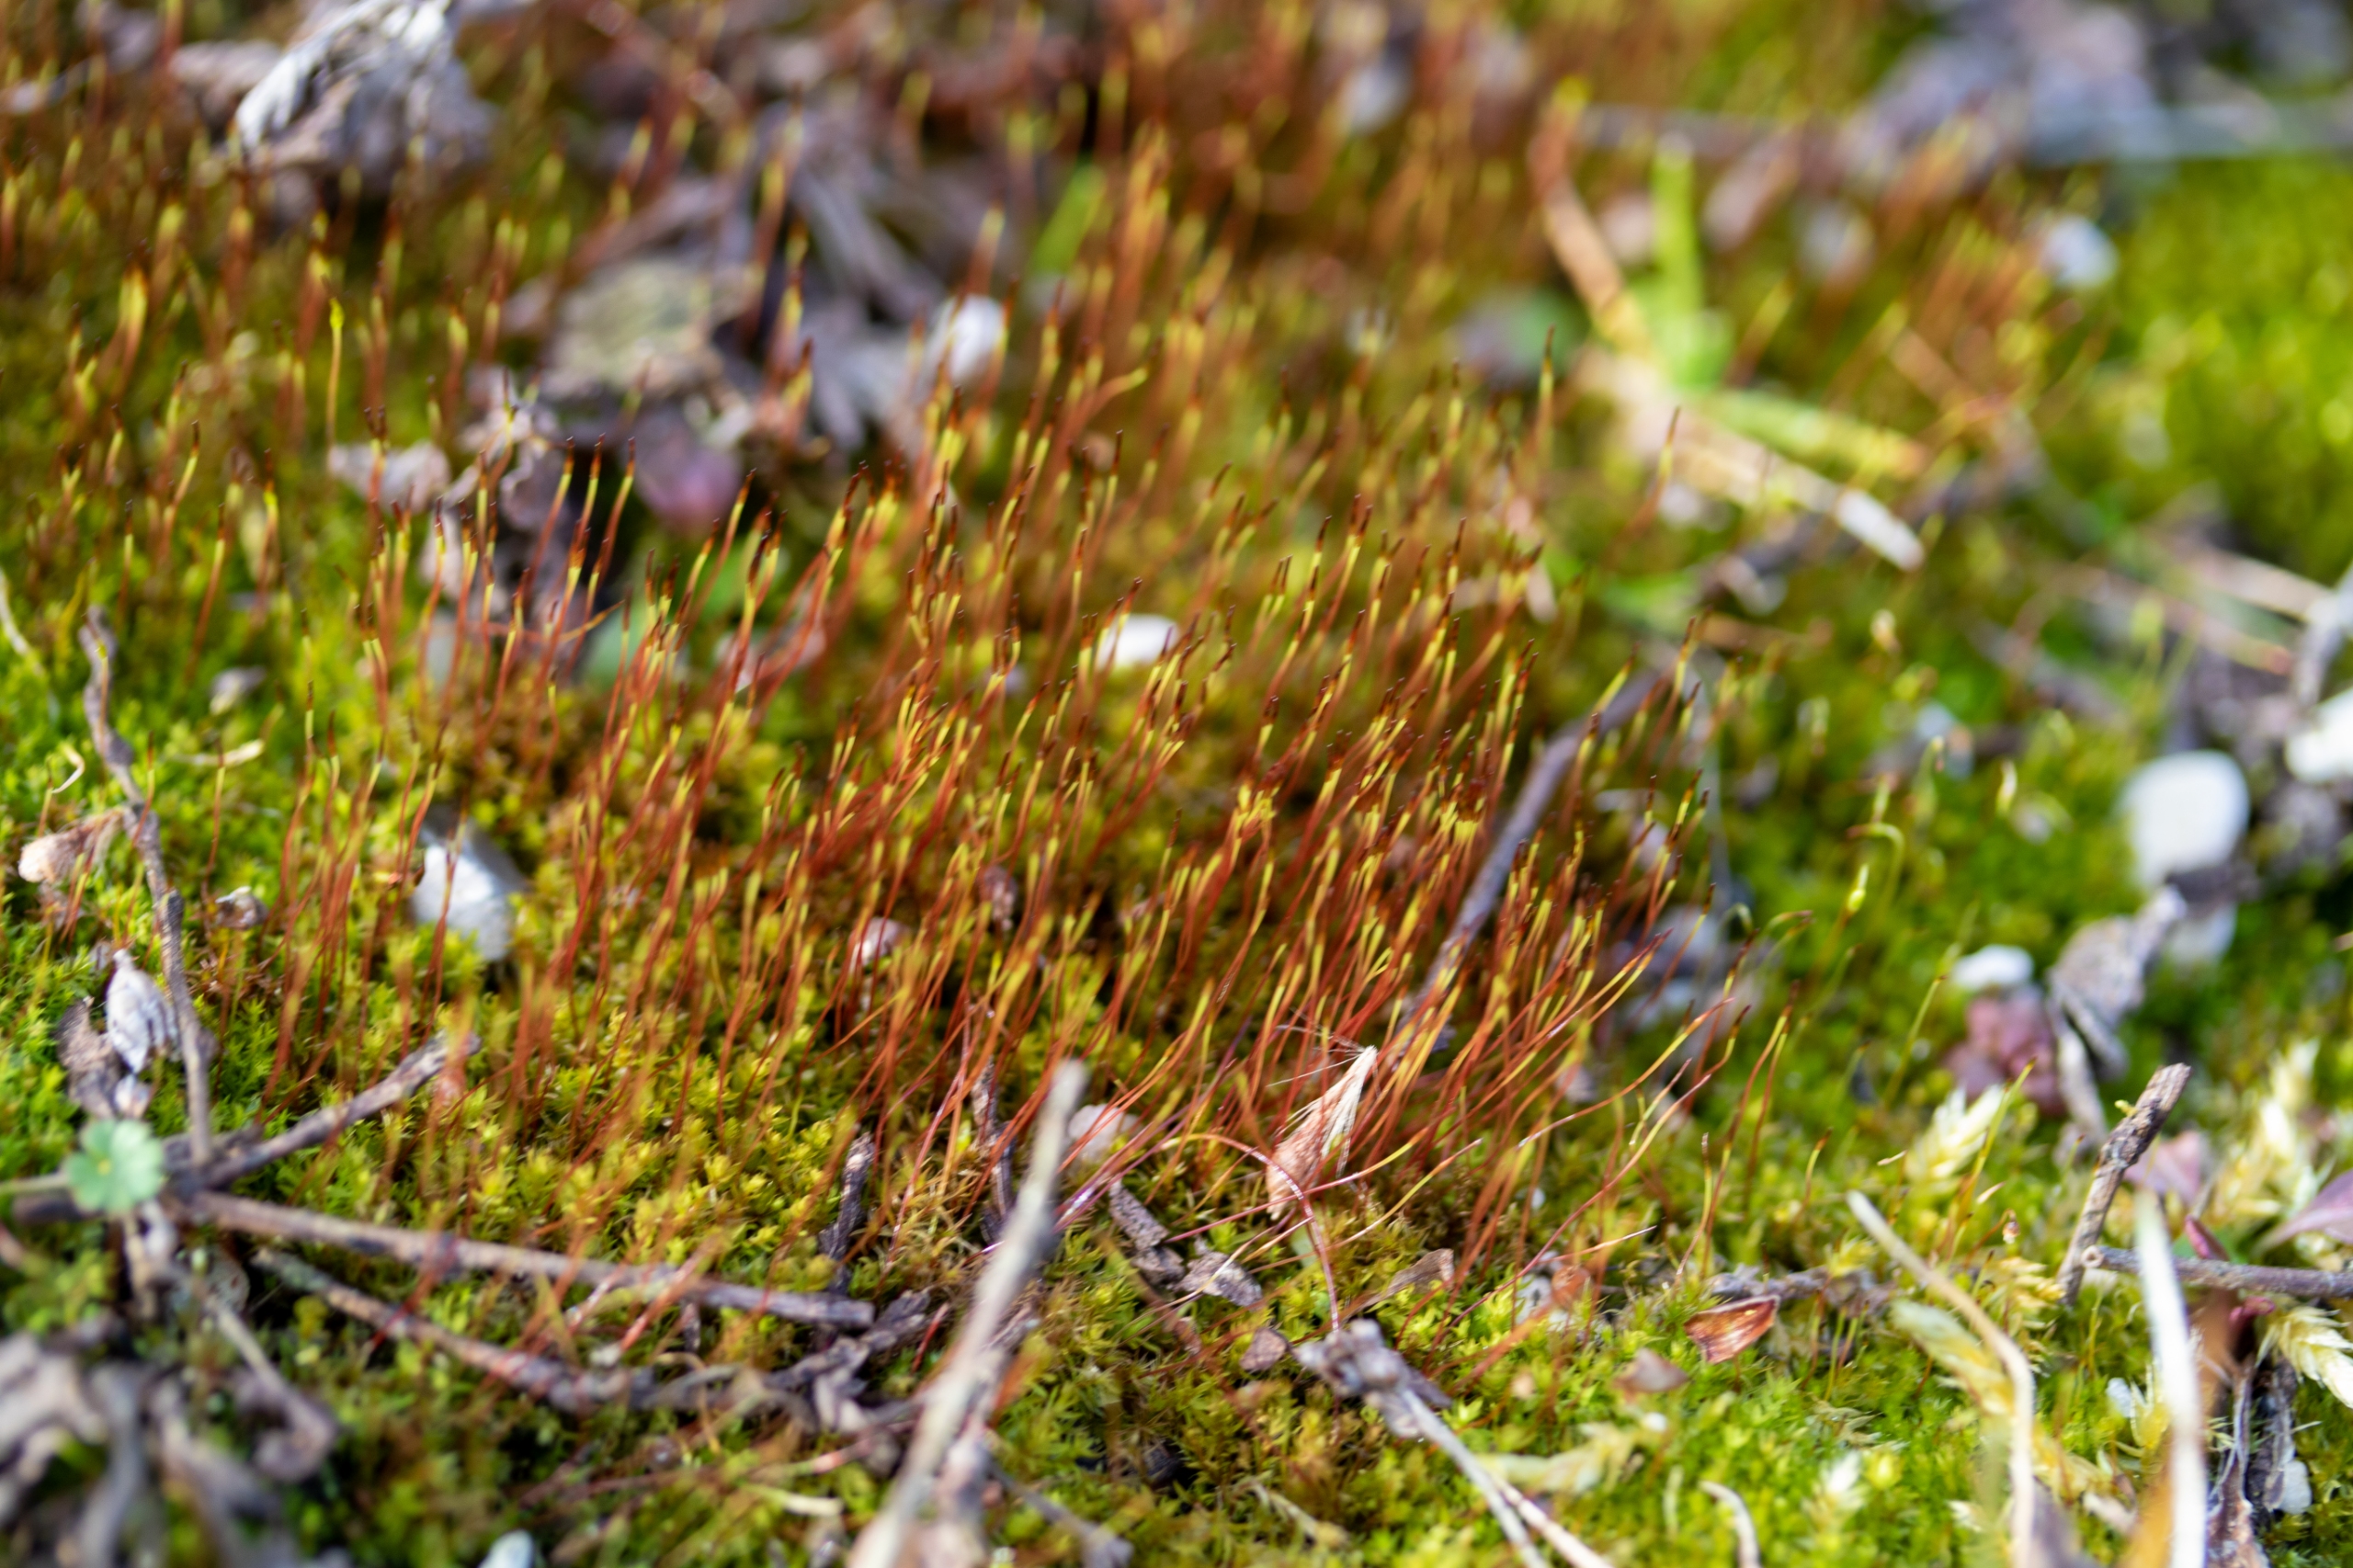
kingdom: Plantae
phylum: Bryophyta
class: Bryopsida
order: Dicranales
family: Ditrichaceae
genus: Ceratodon
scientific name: Ceratodon purpureus
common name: Rød horntand
